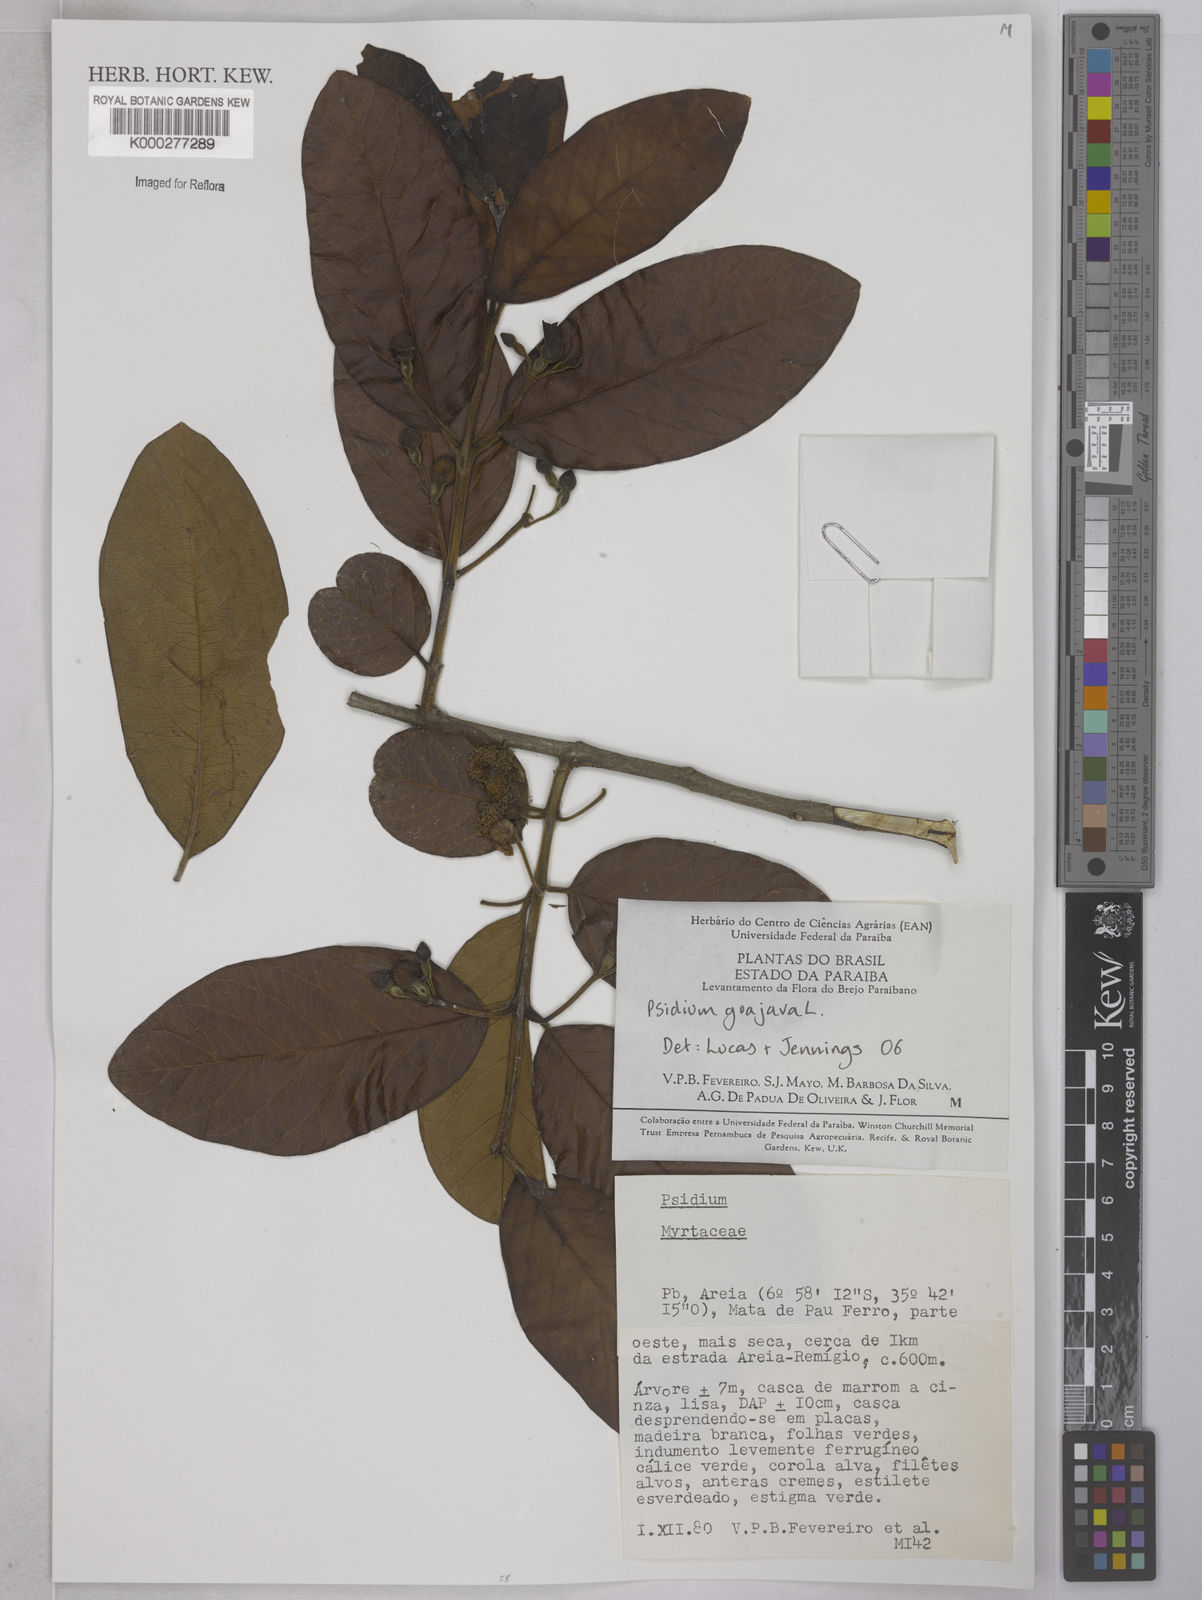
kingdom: Plantae
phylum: Tracheophyta
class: Magnoliopsida
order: Myrtales
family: Myrtaceae
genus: Psidium
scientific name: Psidium guajava
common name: Guava
